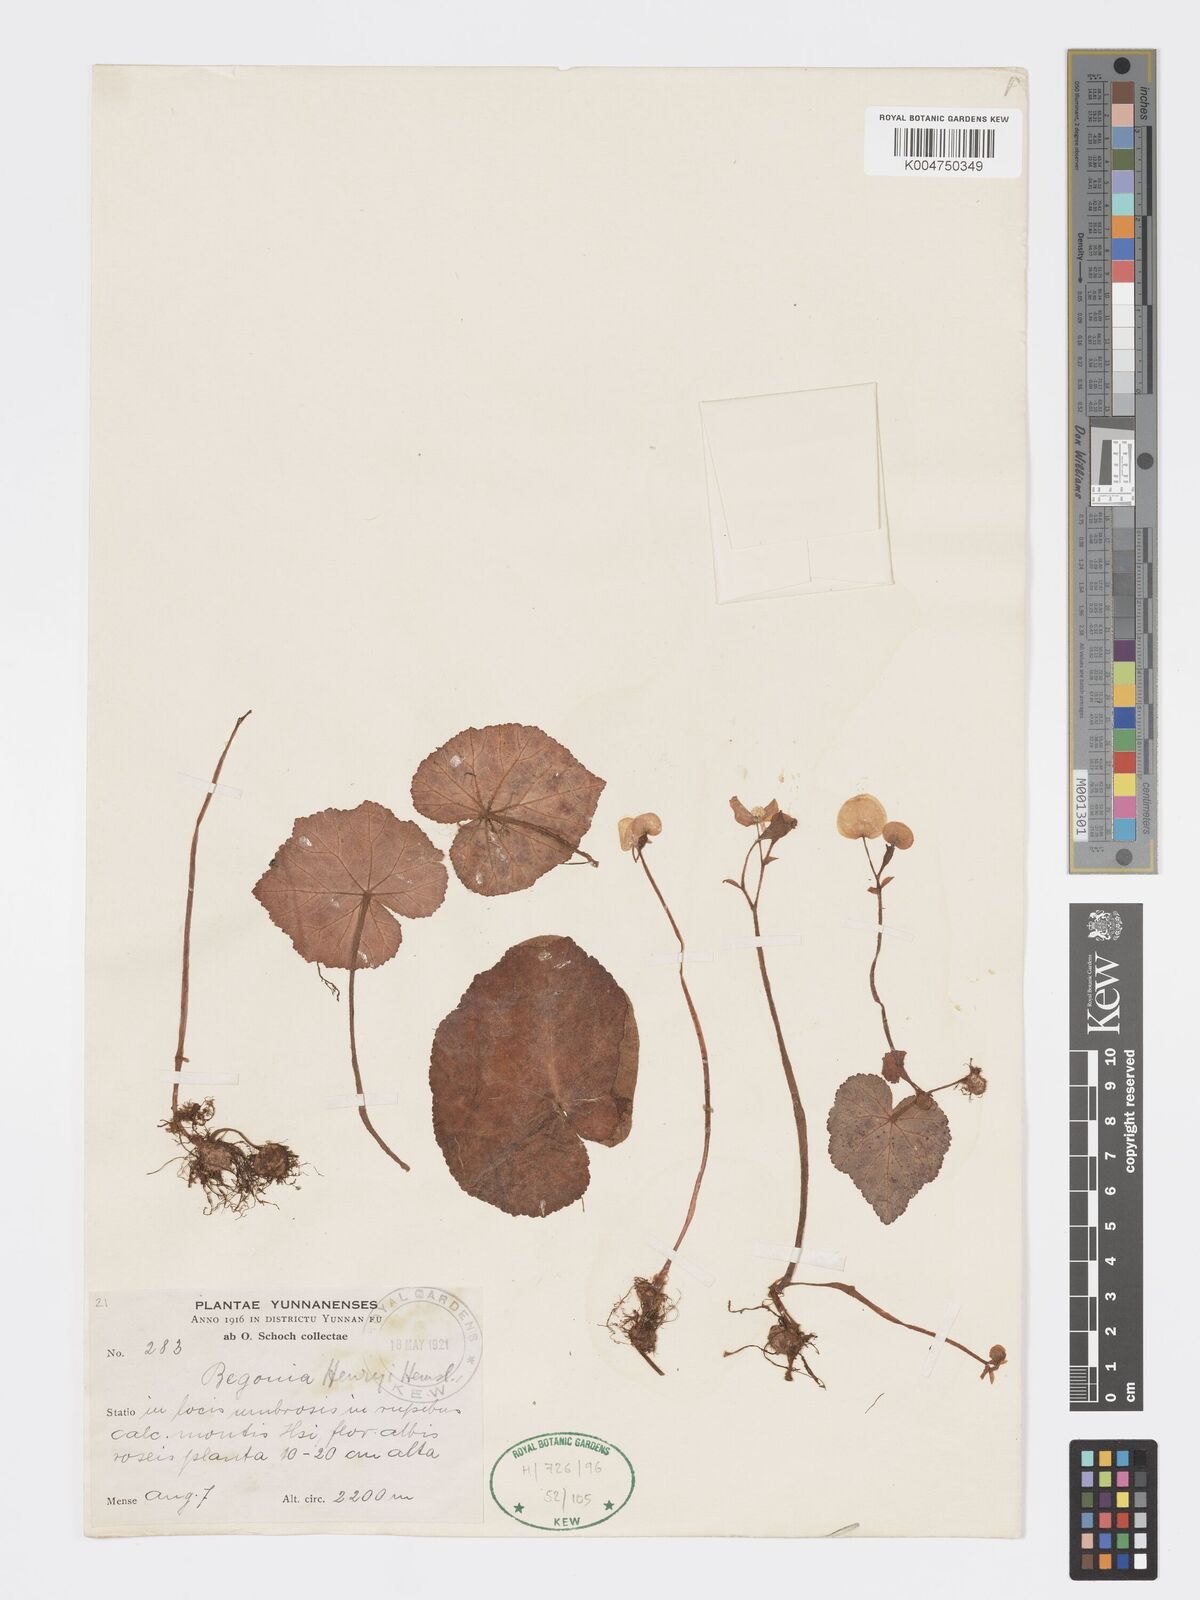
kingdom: Plantae
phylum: Tracheophyta
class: Magnoliopsida
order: Cucurbitales
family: Begoniaceae
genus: Begonia
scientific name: Begonia henryi
